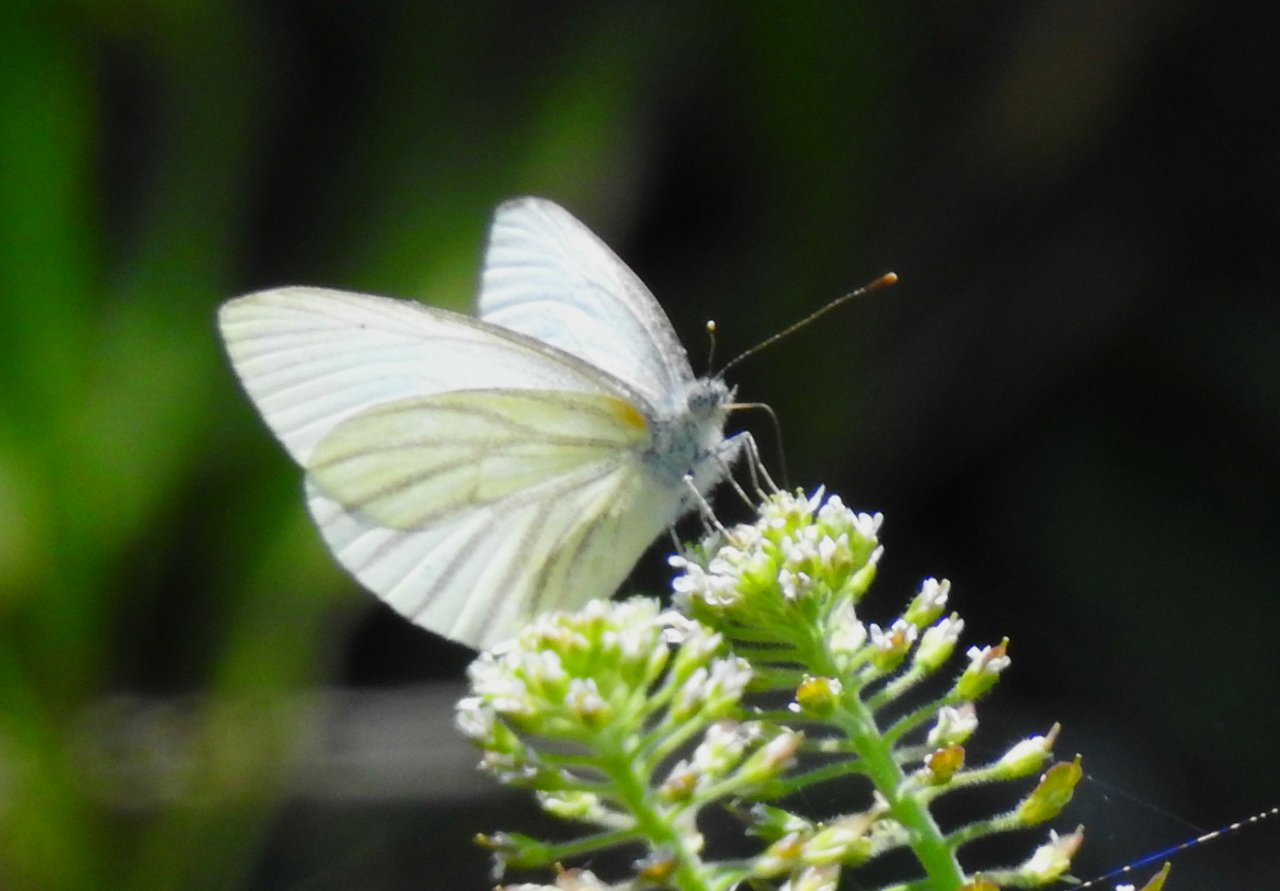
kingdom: Animalia
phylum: Arthropoda
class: Insecta
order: Lepidoptera
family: Pieridae
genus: Pieris
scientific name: Pieris oleracea
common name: Mustard White
